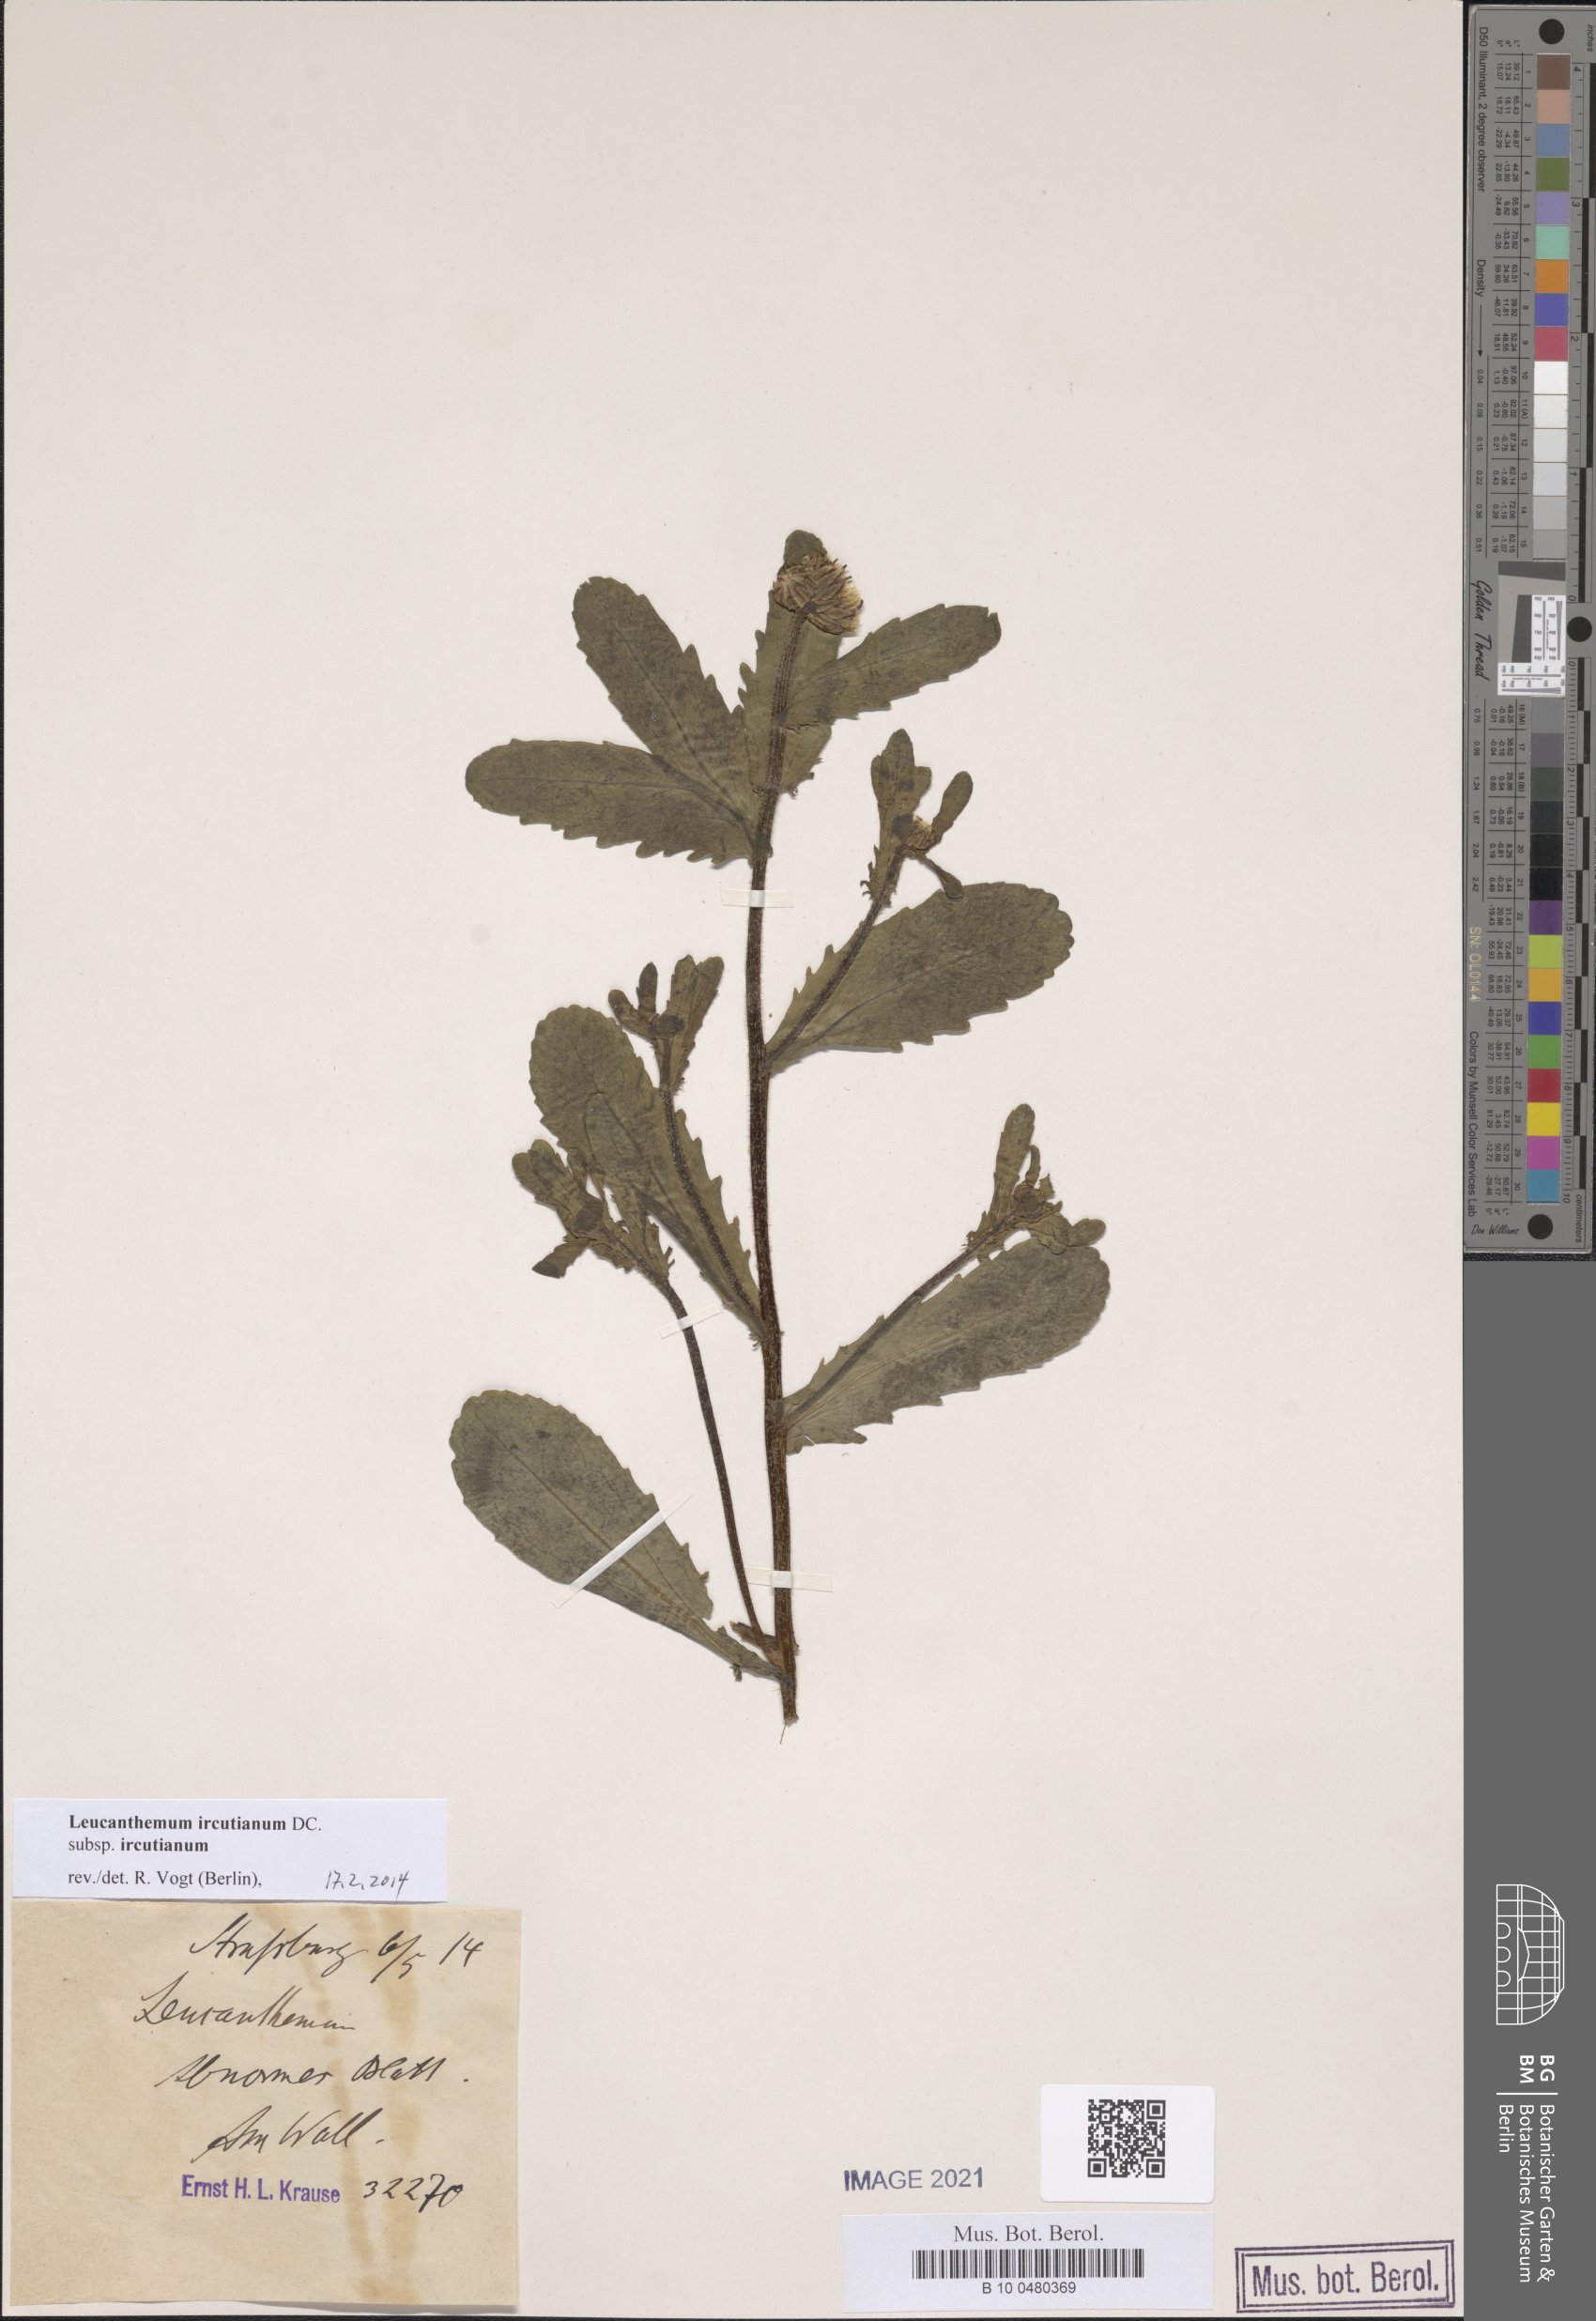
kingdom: Plantae
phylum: Tracheophyta
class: Magnoliopsida
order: Asterales
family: Asteraceae
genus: Leucanthemum
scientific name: Leucanthemum ircutianum
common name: Daisy
